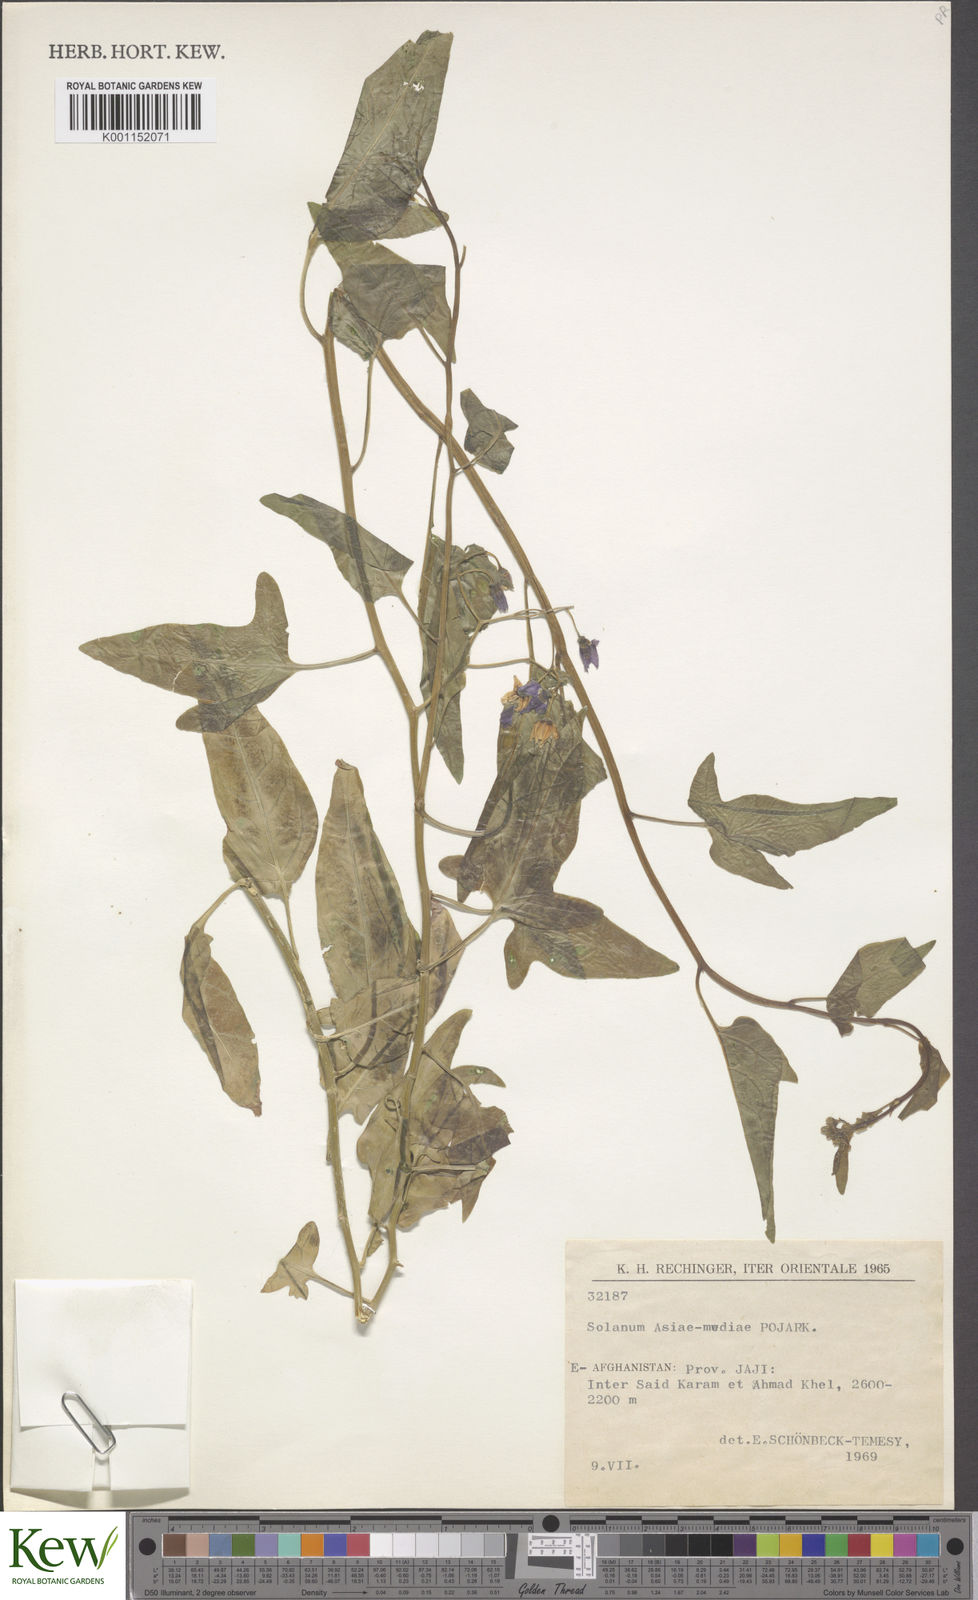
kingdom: Plantae
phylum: Tracheophyta
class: Magnoliopsida
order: Solanales
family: Solanaceae
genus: Solanum
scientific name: Solanum dulcamara
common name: Climbing nightshade
